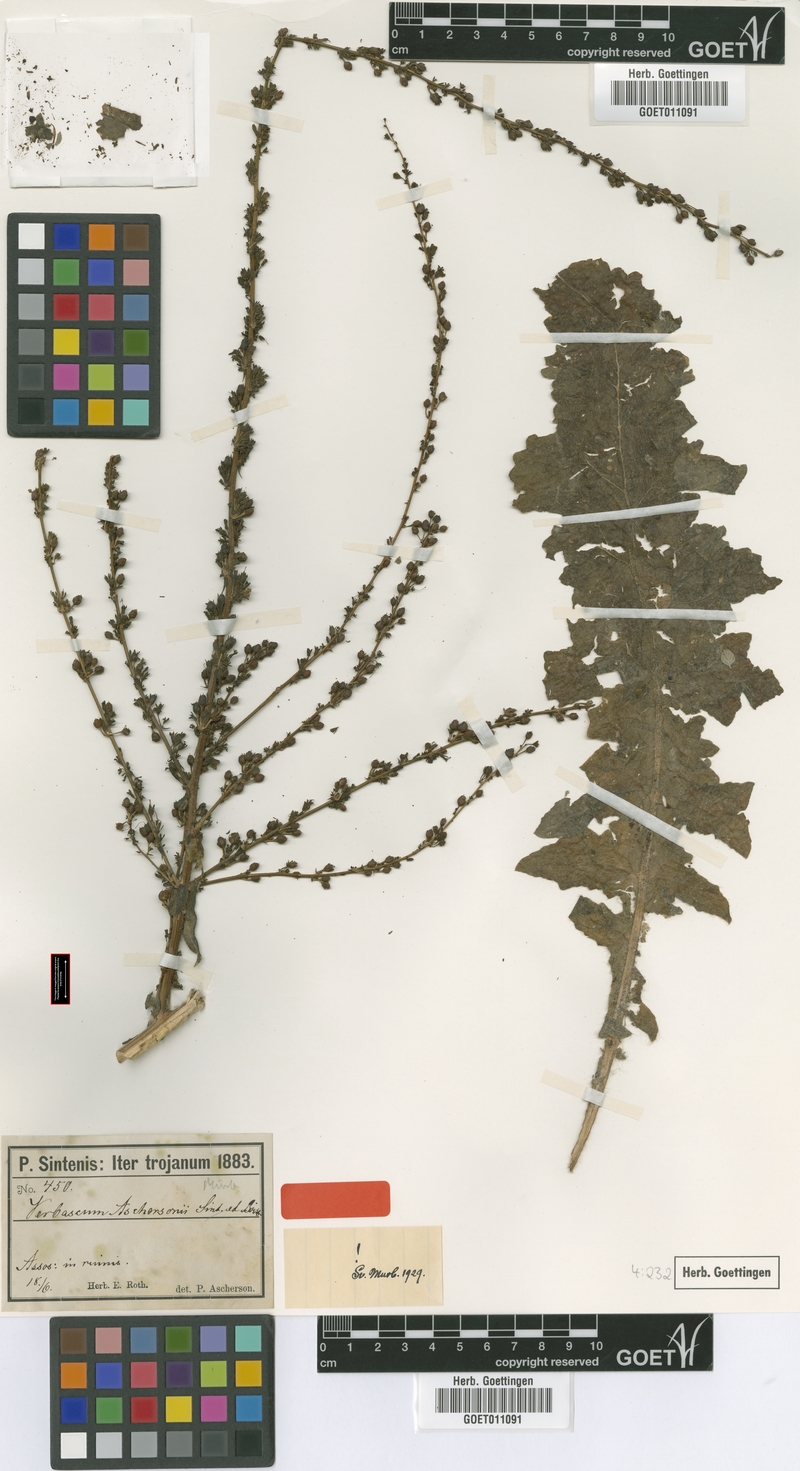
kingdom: Plantae
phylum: Tracheophyta
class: Magnoliopsida
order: Lamiales
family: Scrophulariaceae
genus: Verbascum
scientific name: Verbascum aschersonii
